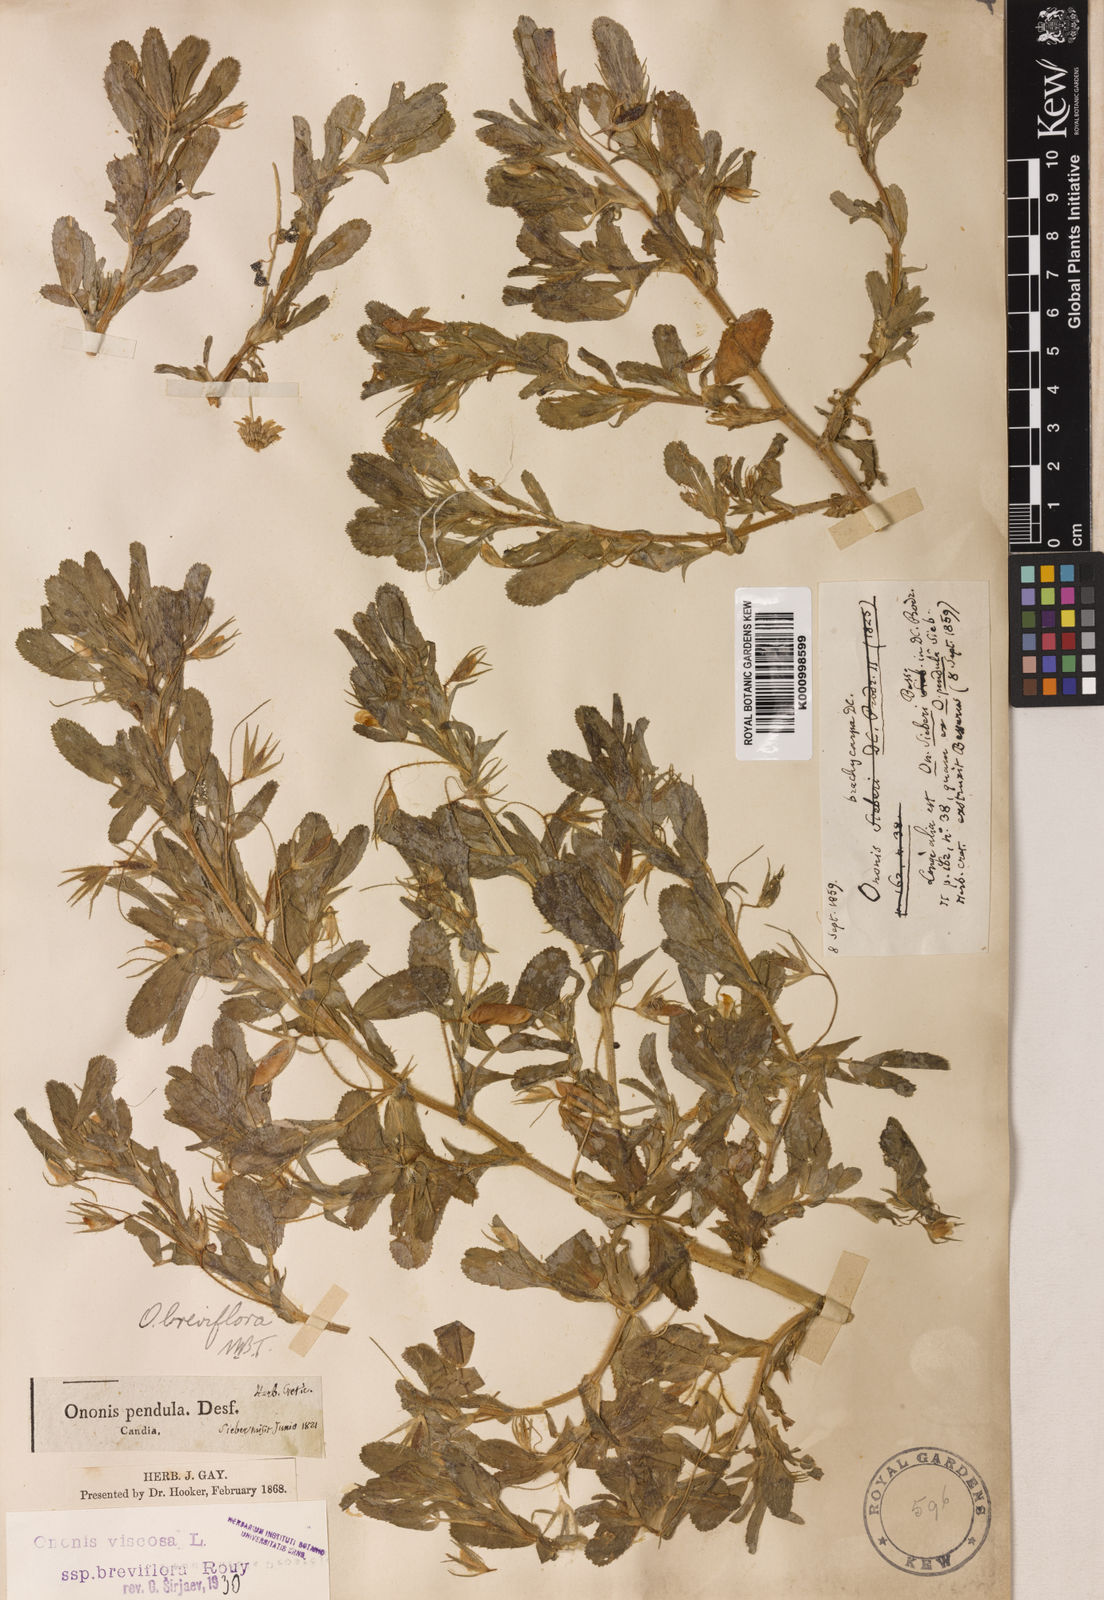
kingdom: Plantae
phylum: Tracheophyta
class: Magnoliopsida
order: Fabales
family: Fabaceae
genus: Ononis
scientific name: Ononis viscosa
